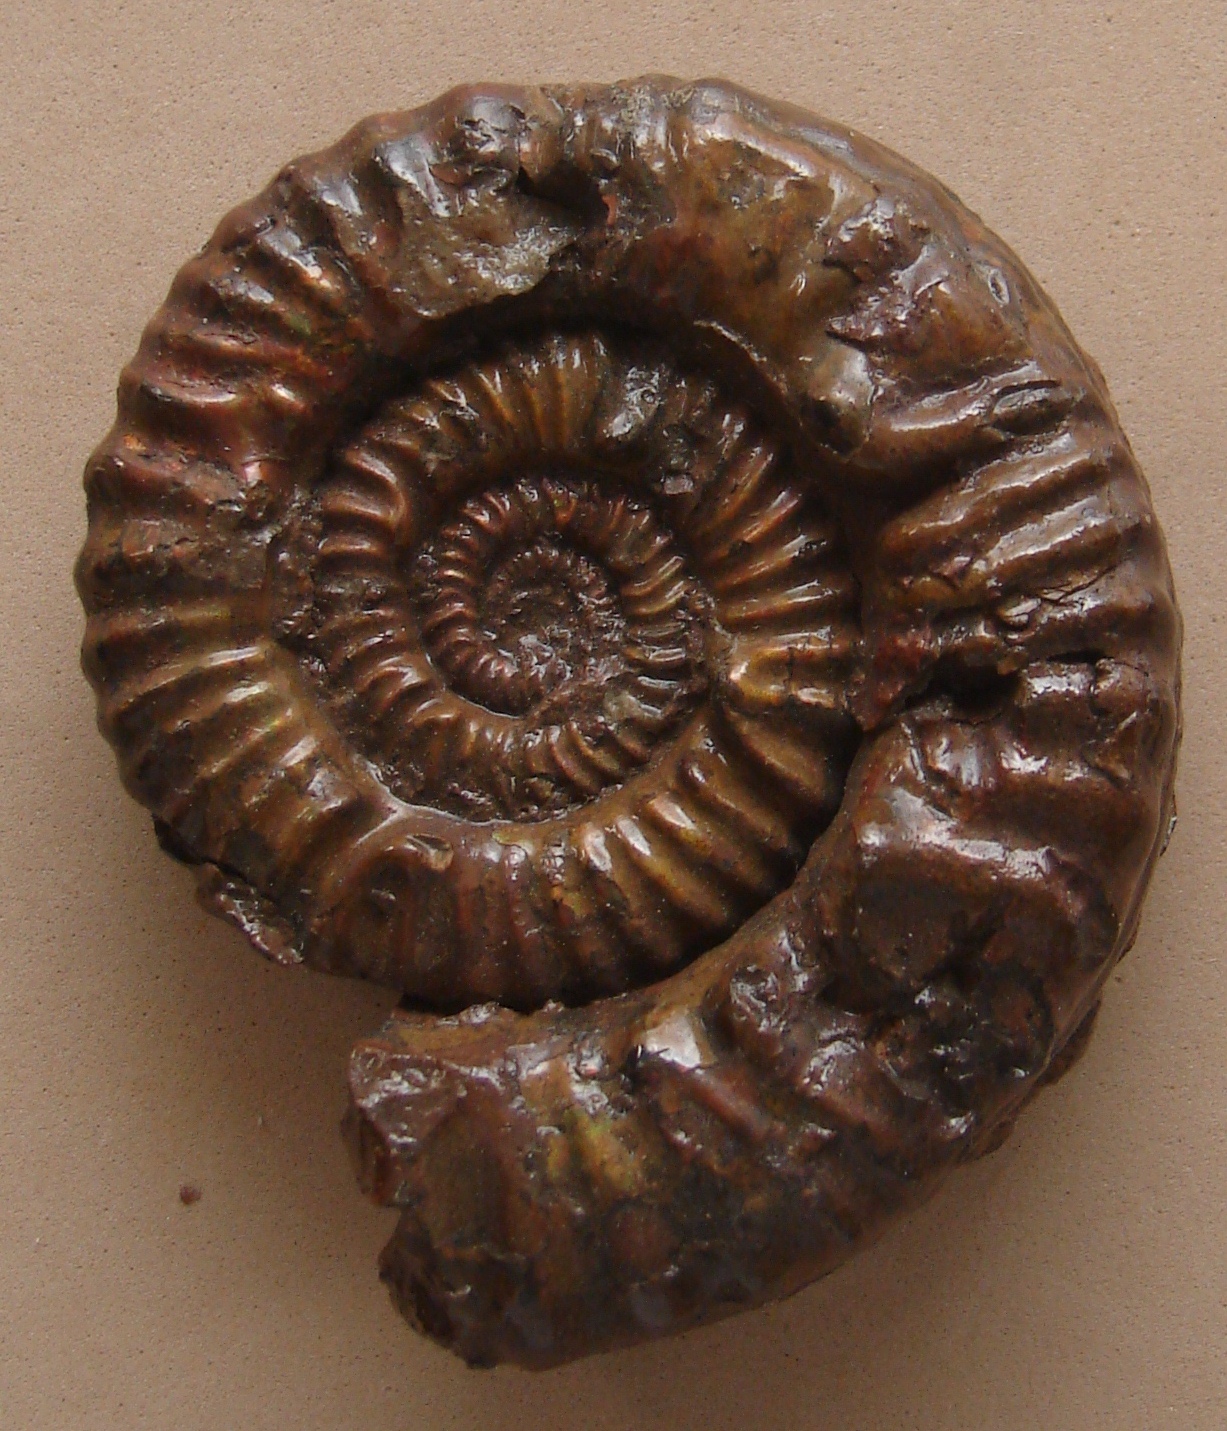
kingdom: Animalia
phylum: Mollusca
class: Cephalopoda
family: Phymatoceratidae
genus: Phymatoceras
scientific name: Phymatoceras erbaensis
